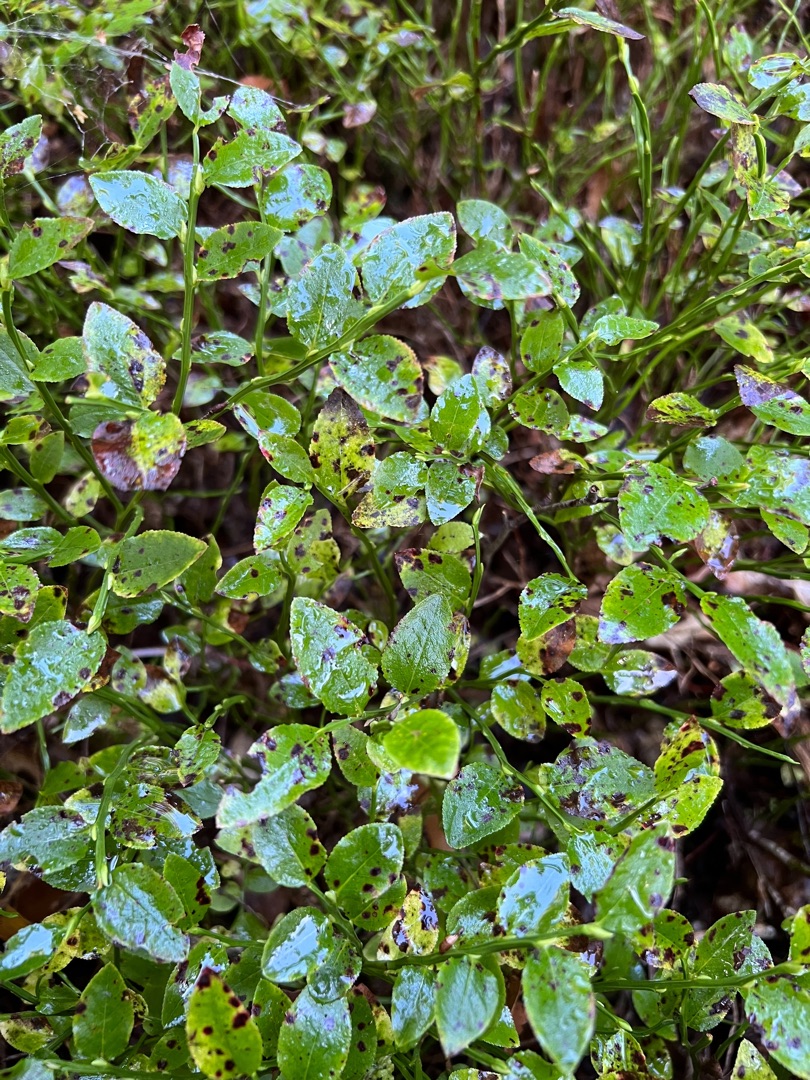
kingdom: Plantae
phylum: Tracheophyta
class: Magnoliopsida
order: Ericales
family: Ericaceae
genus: Vaccinium
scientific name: Vaccinium myrtillus
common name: Blåbær
